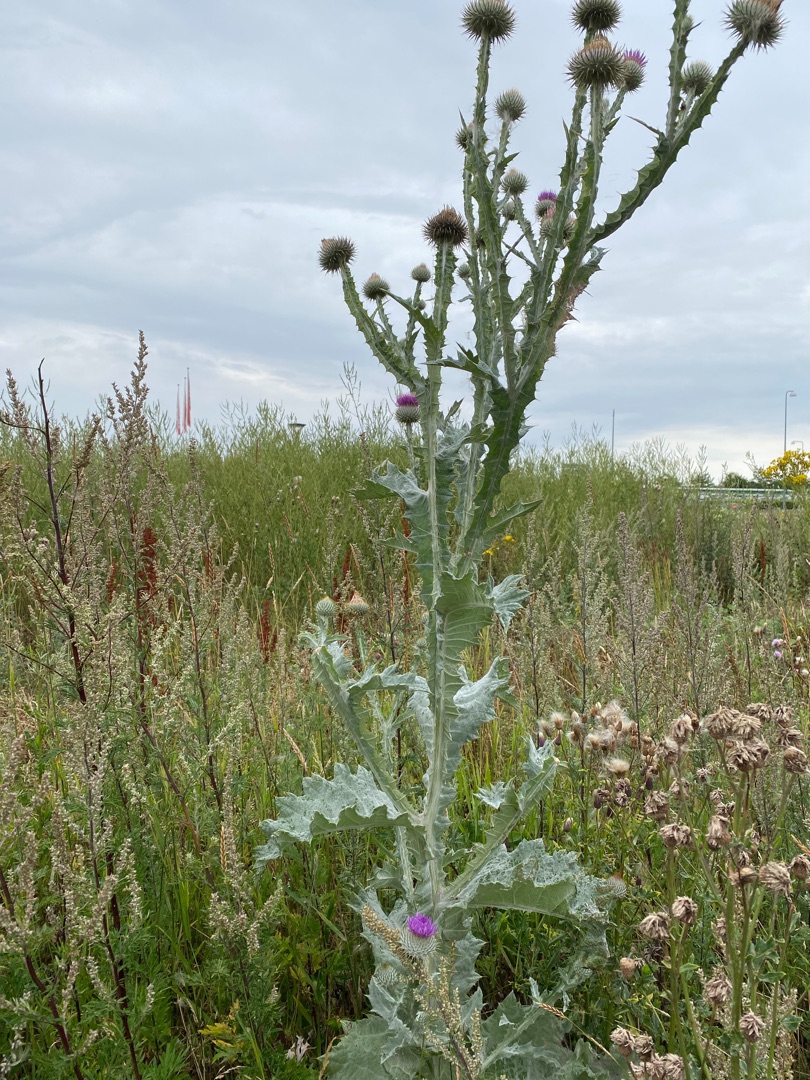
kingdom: Plantae
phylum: Tracheophyta
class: Magnoliopsida
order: Asterales
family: Asteraceae
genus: Onopordum
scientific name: Onopordum acanthium
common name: Æselfoder
